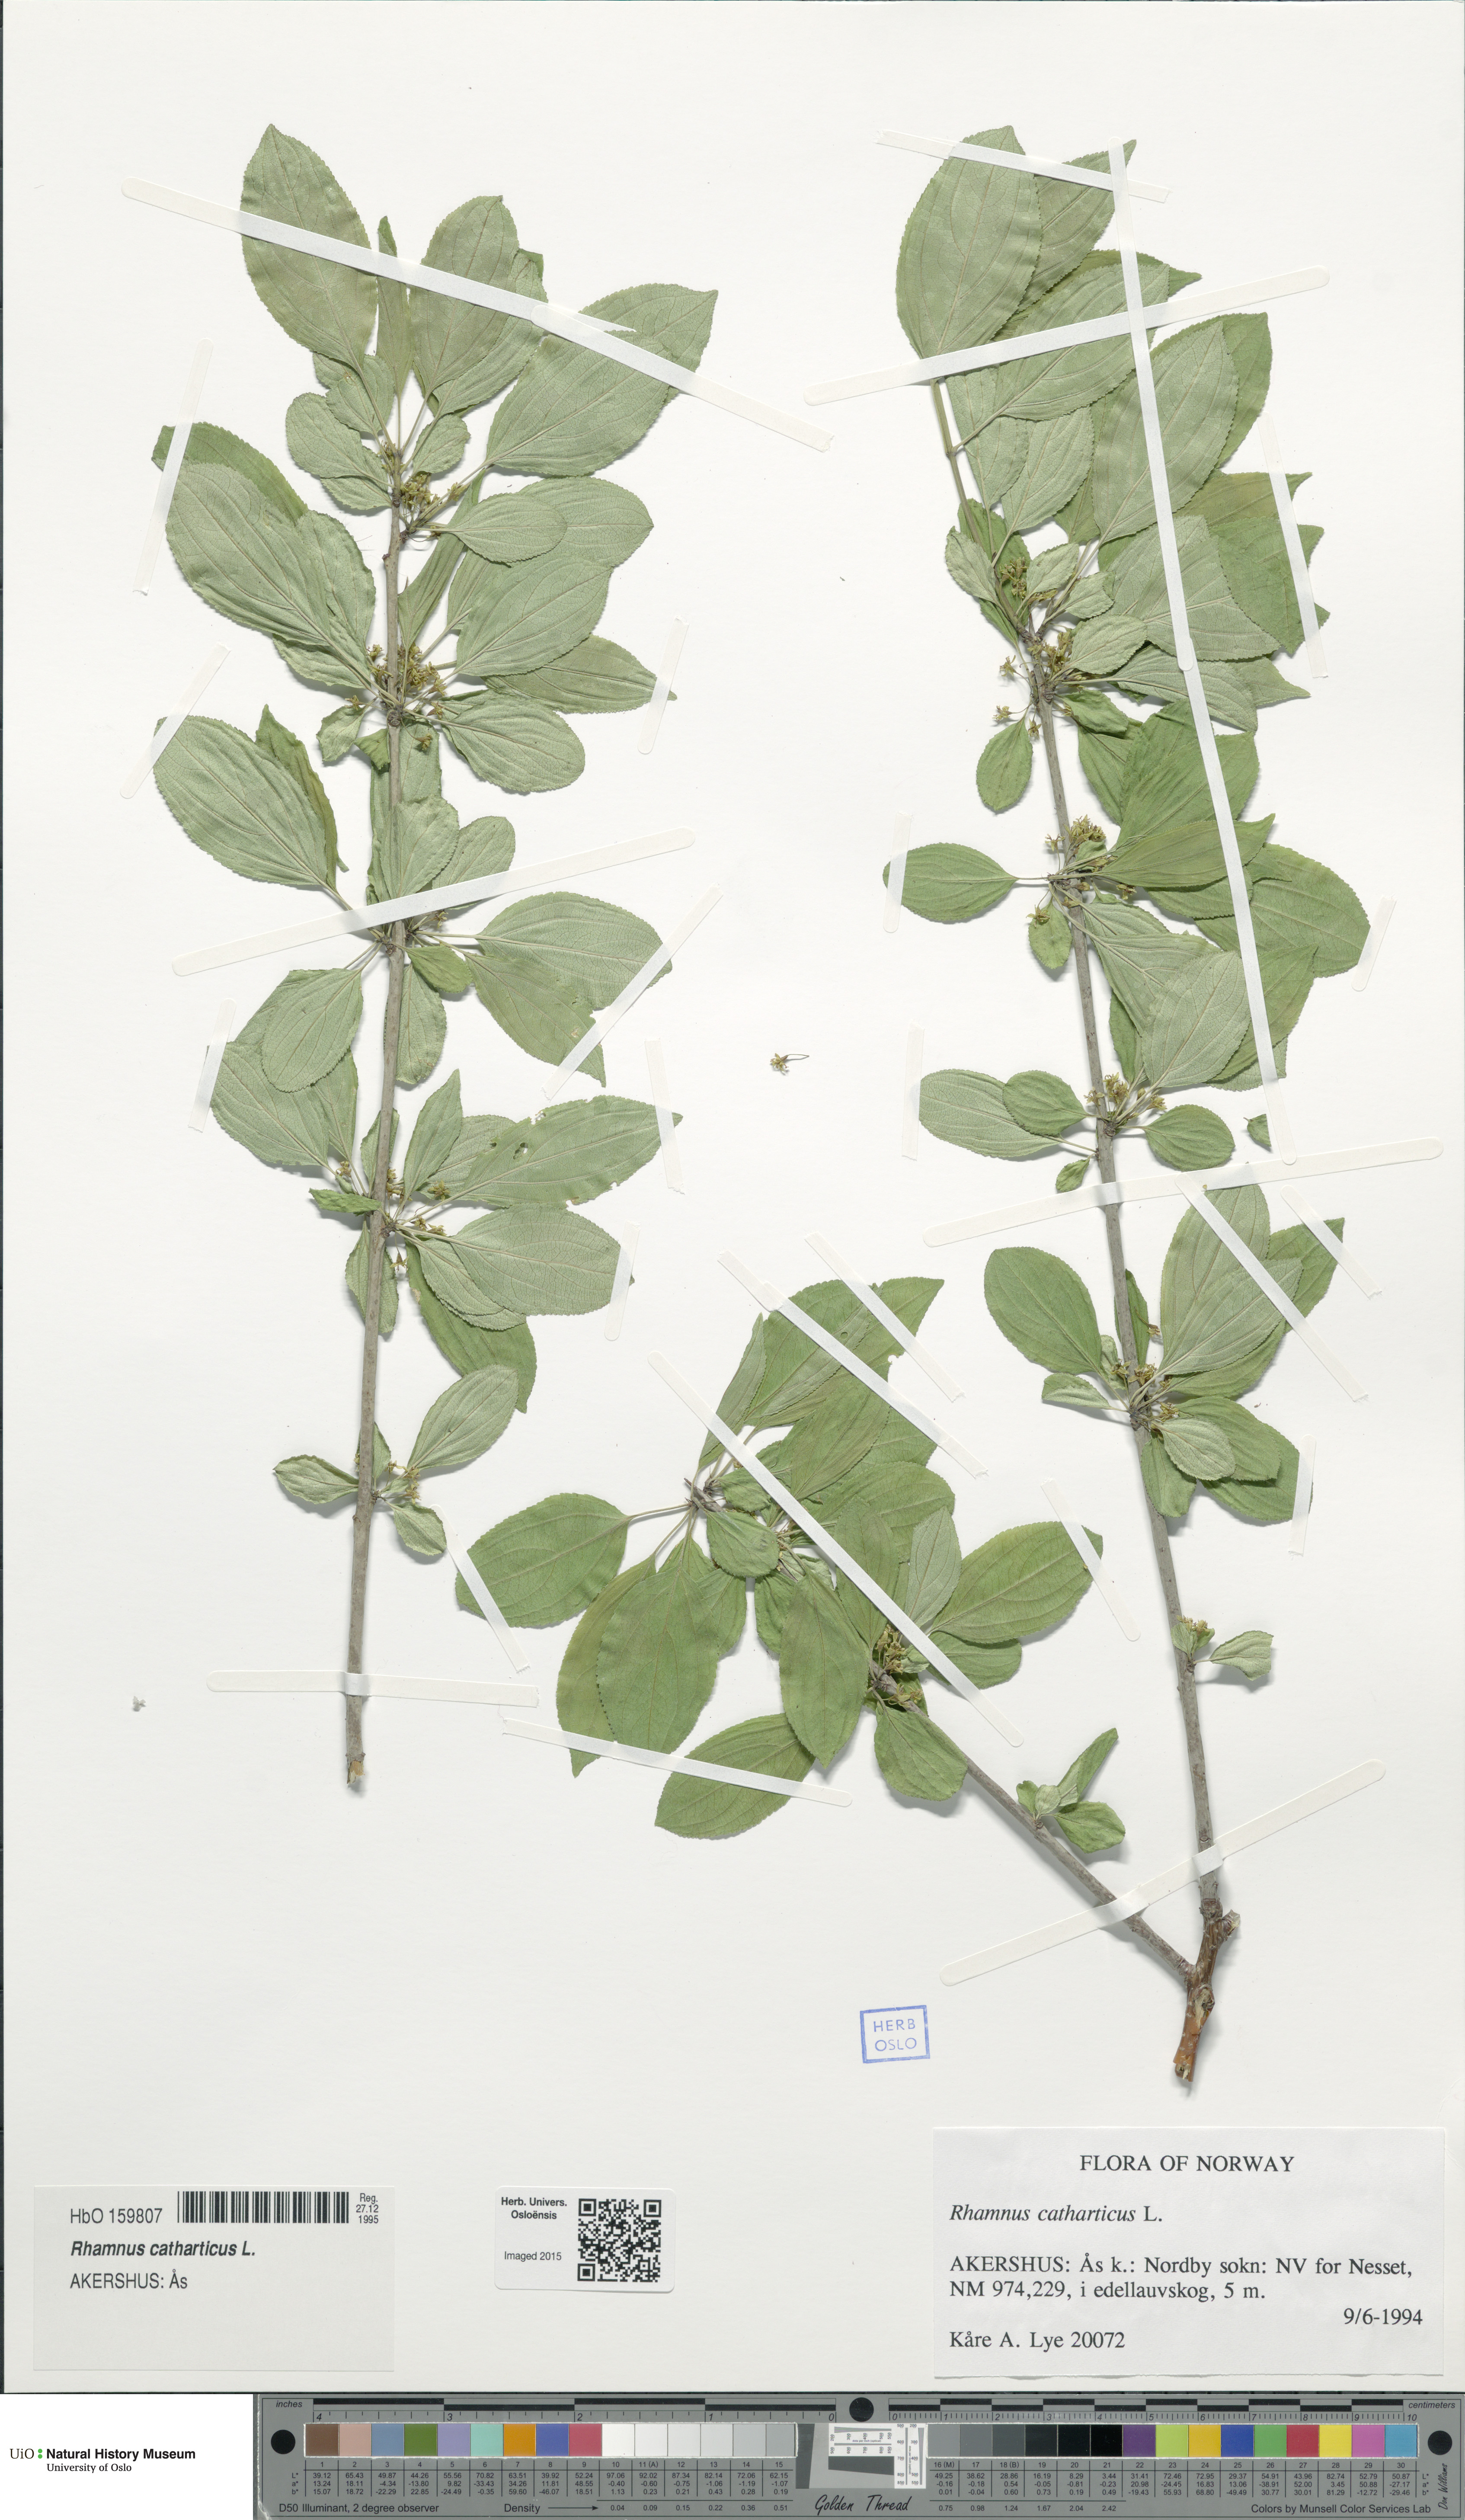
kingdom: Plantae
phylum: Tracheophyta
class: Magnoliopsida
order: Rosales
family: Rhamnaceae
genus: Rhamnus
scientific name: Rhamnus cathartica
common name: Common buckthorn
